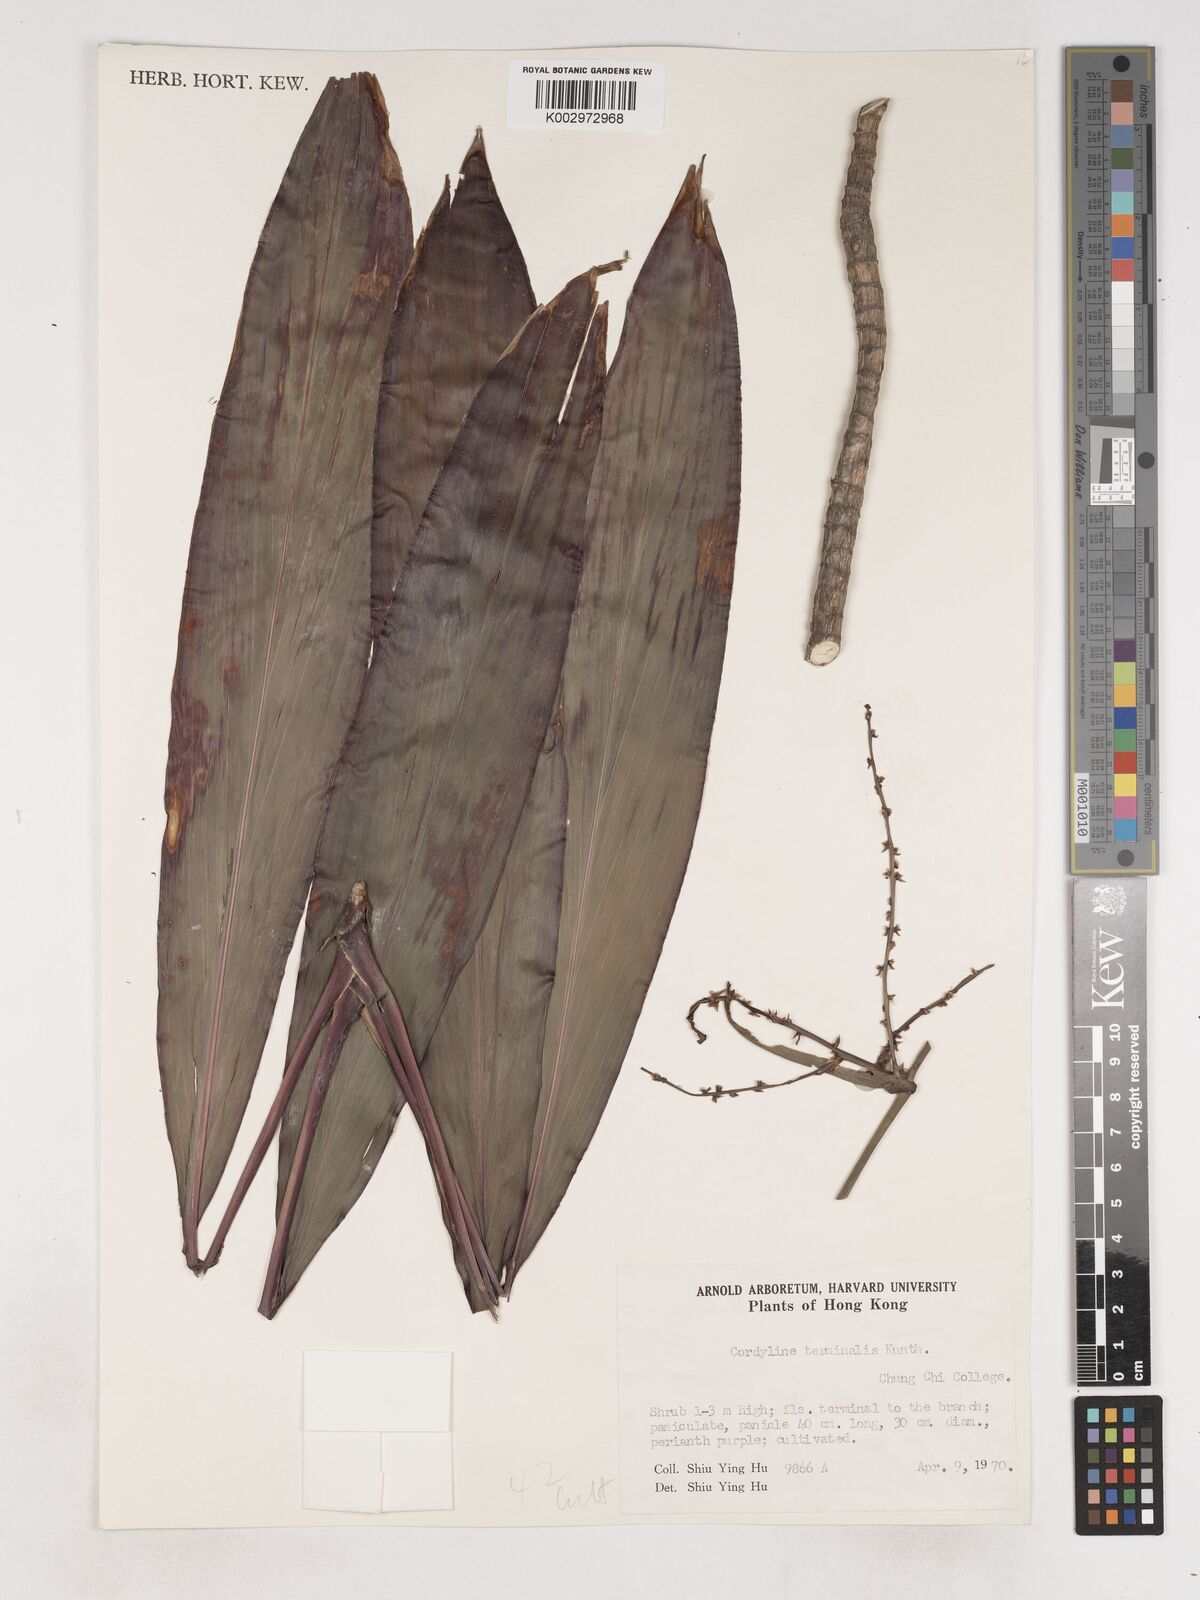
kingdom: Plantae
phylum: Tracheophyta
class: Liliopsida
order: Asparagales
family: Asparagaceae
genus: Cordyline
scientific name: Cordyline fruticosa
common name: Good-luck-plant
